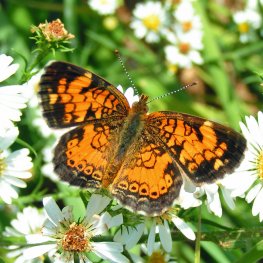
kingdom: Animalia
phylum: Arthropoda
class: Insecta
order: Lepidoptera
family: Nymphalidae
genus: Phyciodes
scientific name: Phyciodes tharos
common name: Northern Crescent
